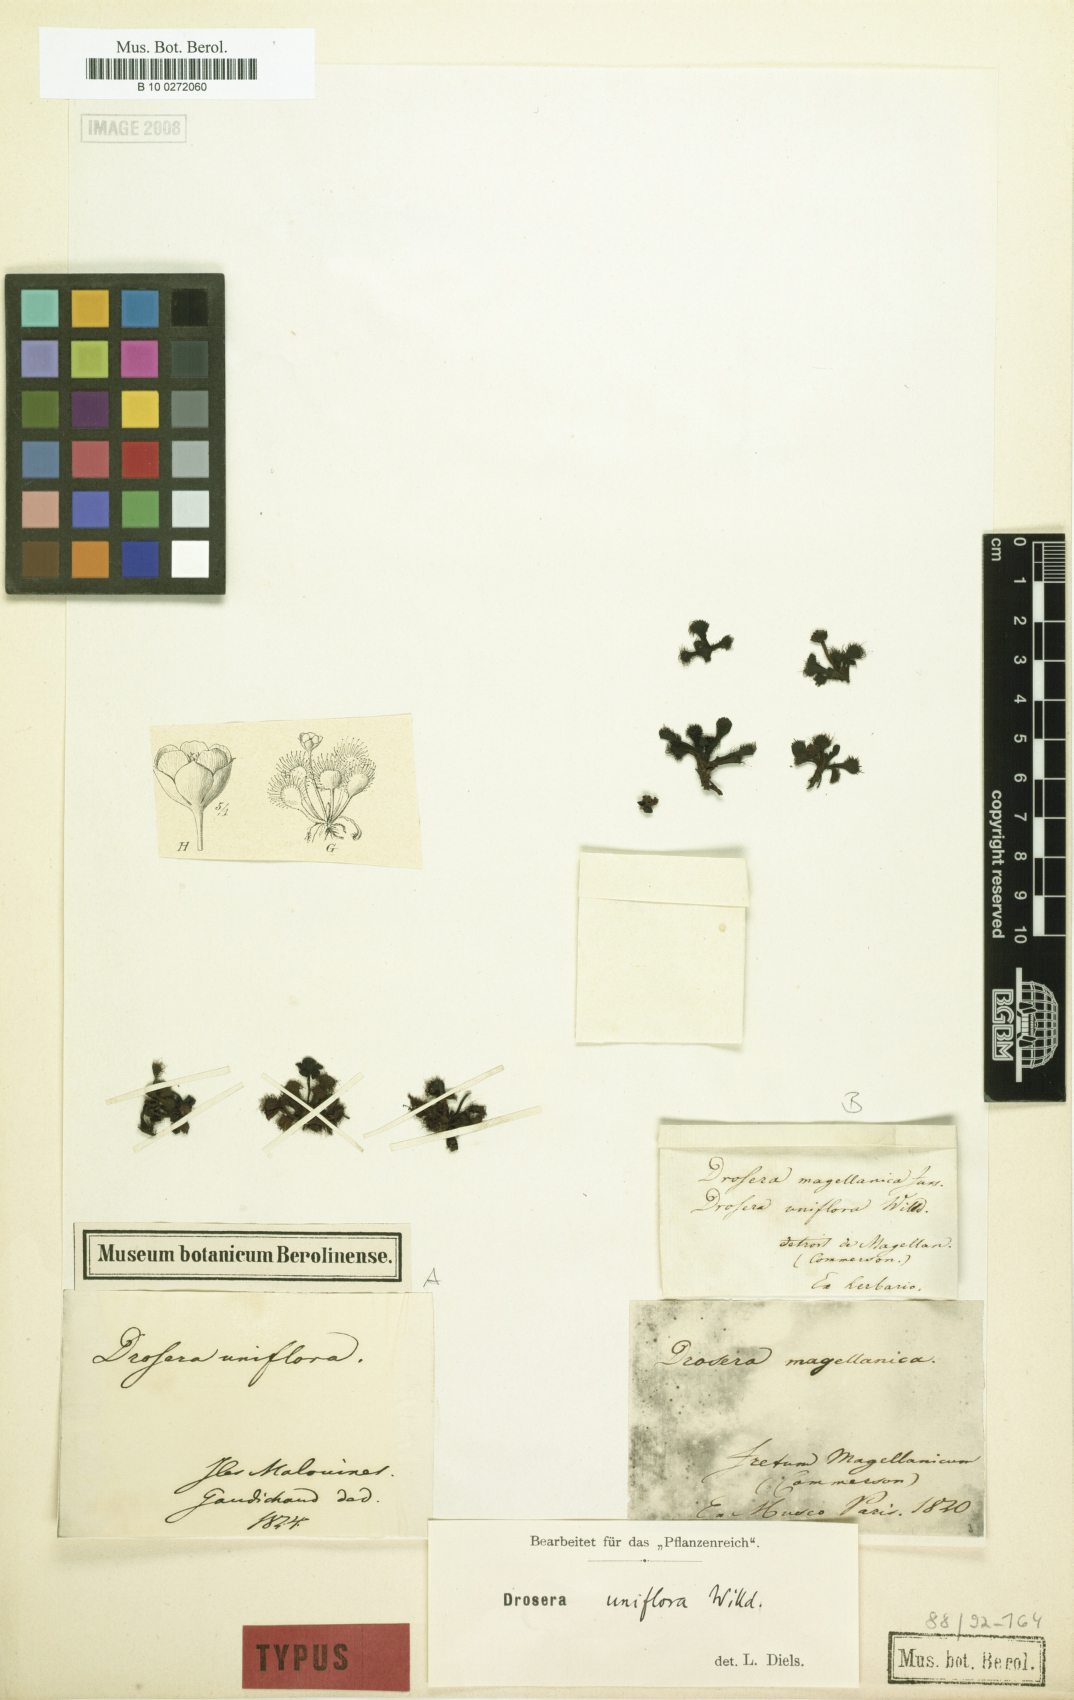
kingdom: Plantae
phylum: Tracheophyta
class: Magnoliopsida
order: Caryophyllales
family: Droseraceae
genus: Drosera
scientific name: Drosera uniflora
